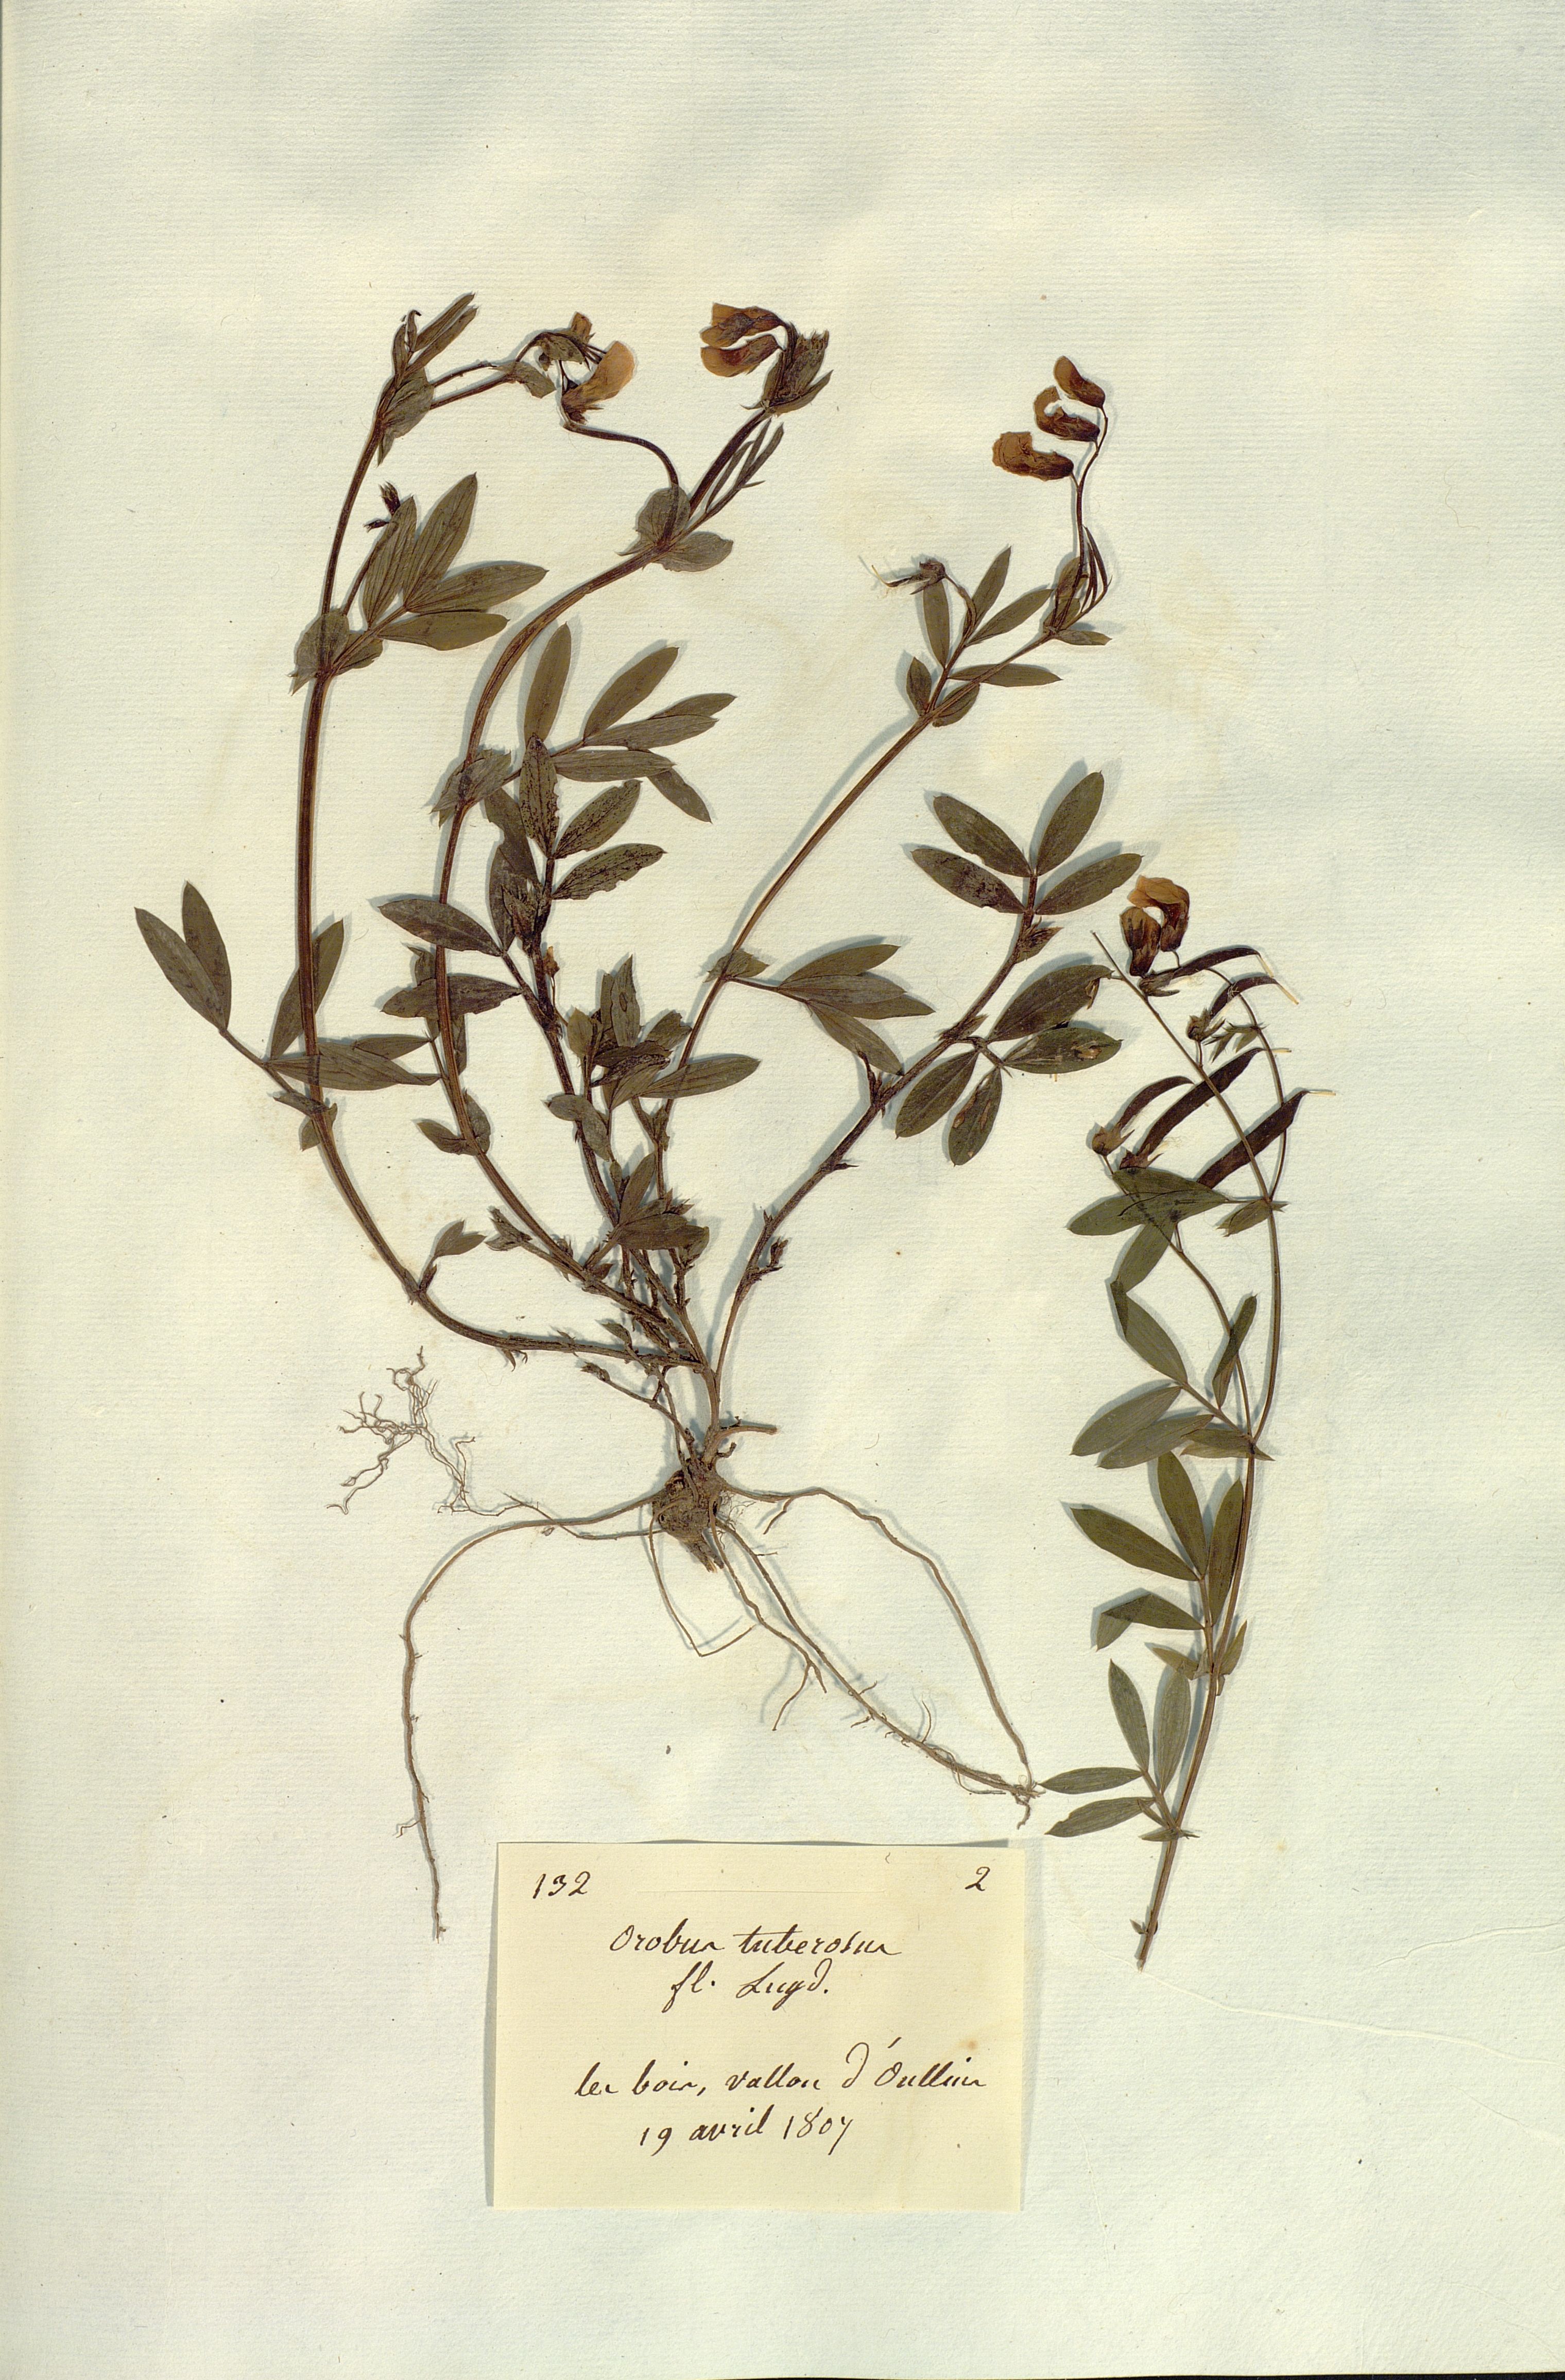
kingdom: Plantae
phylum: Tracheophyta
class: Magnoliopsida
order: Fabales
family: Fabaceae
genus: Lathyrus
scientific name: Lathyrus linifolius
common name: Bitter-vetch
